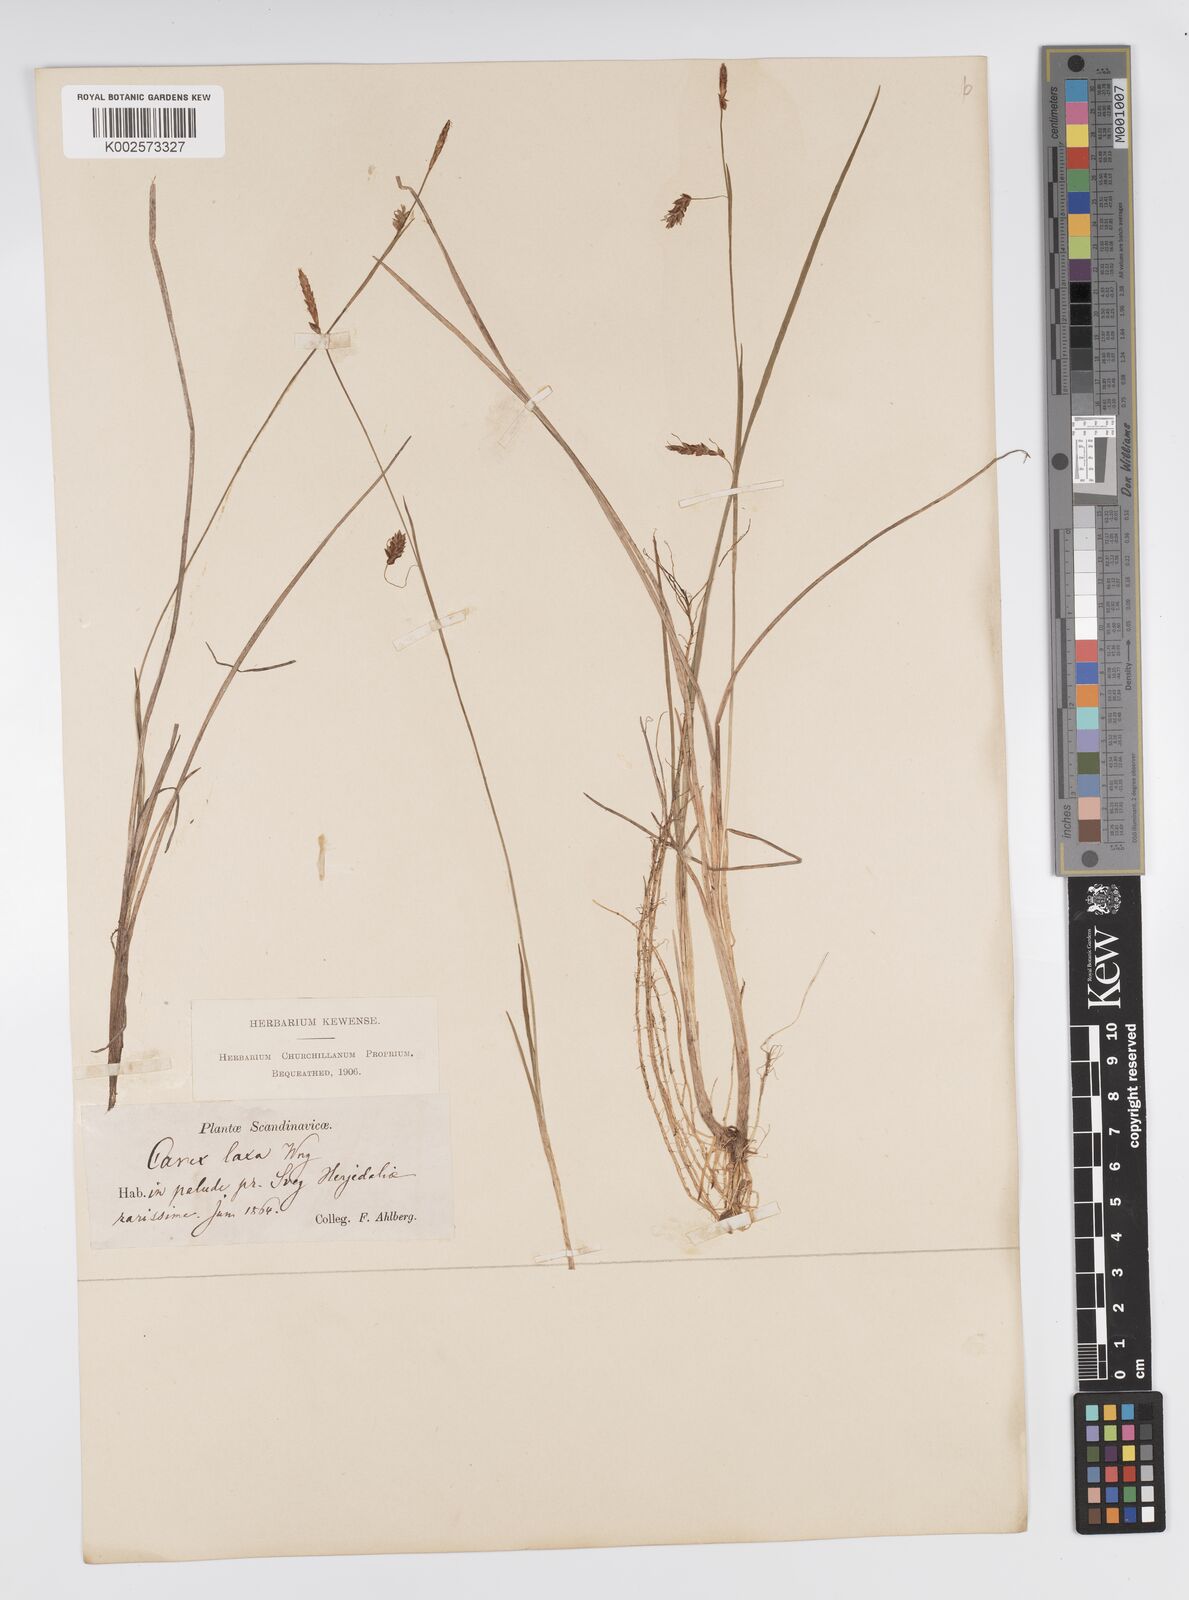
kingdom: Plantae
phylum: Tracheophyta
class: Liliopsida
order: Poales
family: Cyperaceae
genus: Carex
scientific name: Carex laxa
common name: Weak sedge
